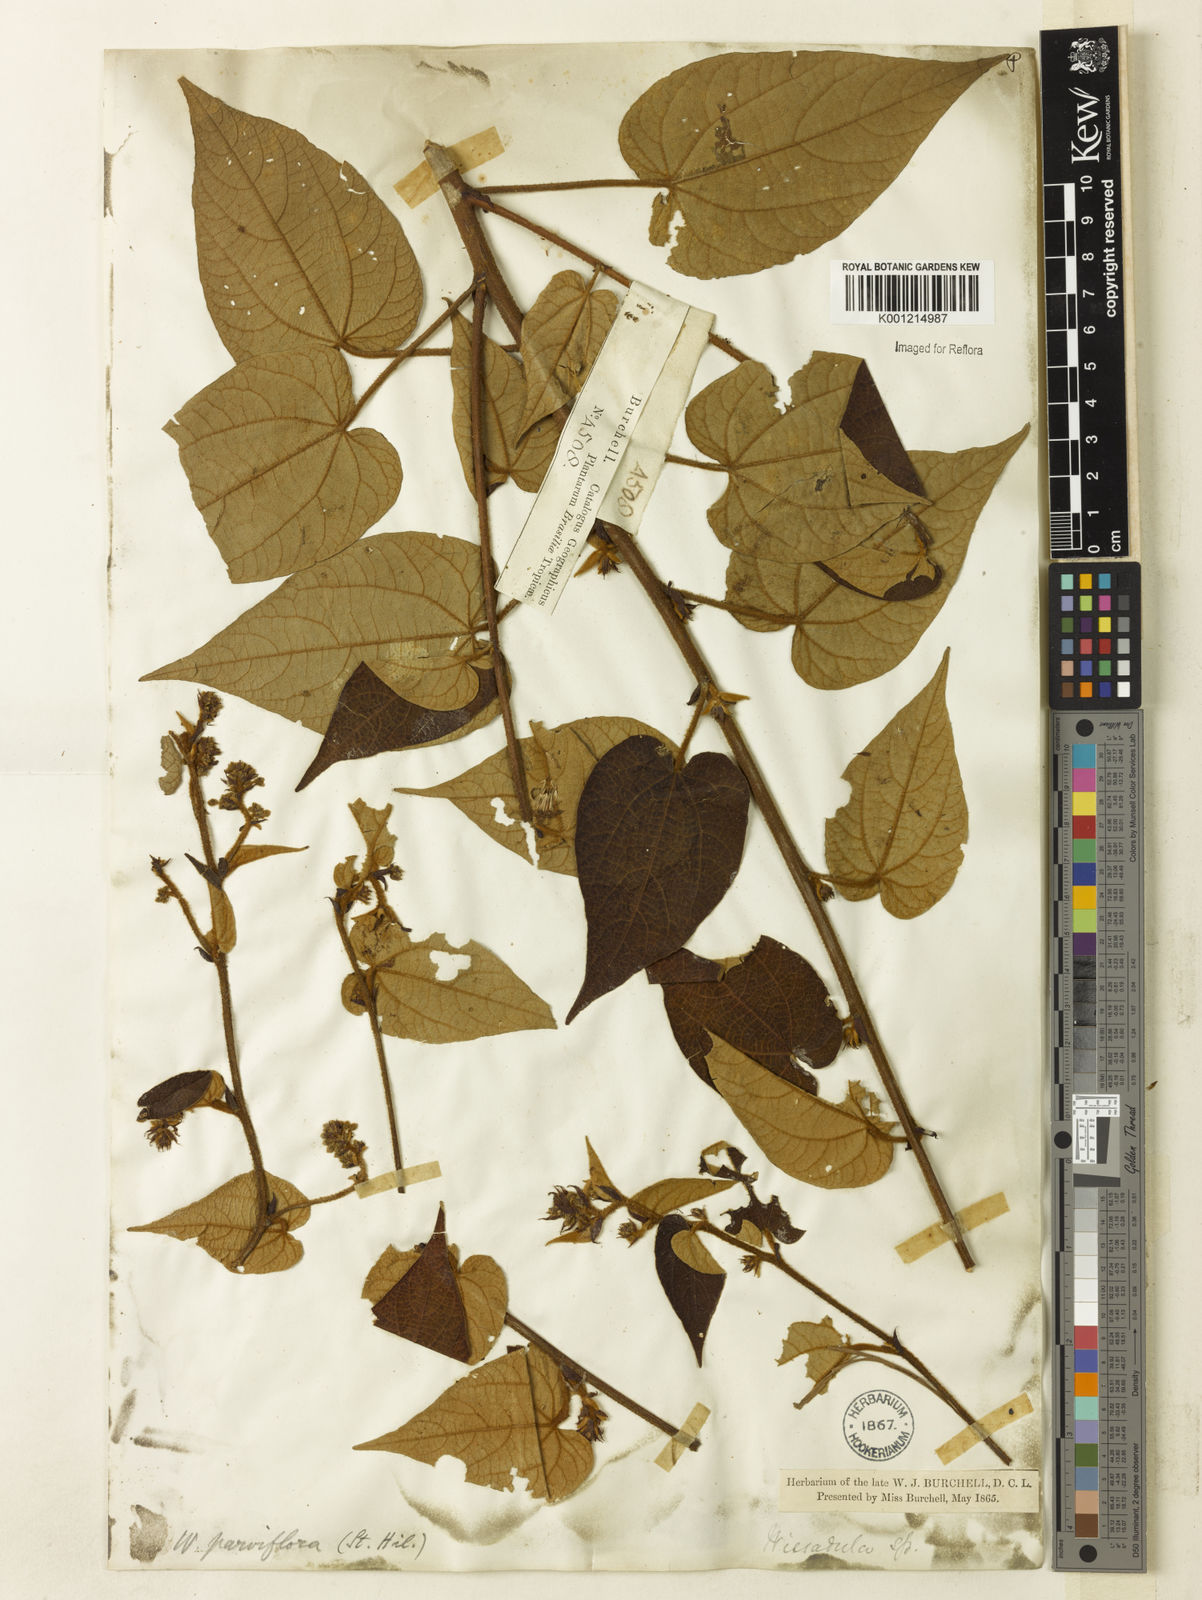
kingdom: Plantae
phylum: Tracheophyta
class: Magnoliopsida
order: Malvales
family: Malvaceae
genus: Wissadula
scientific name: Wissadula parviflora
